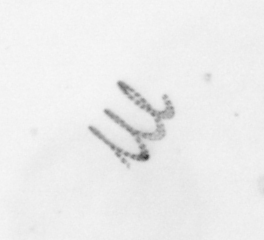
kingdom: Chromista
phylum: Ochrophyta
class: Bacillariophyceae
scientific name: Bacillariophyceae
